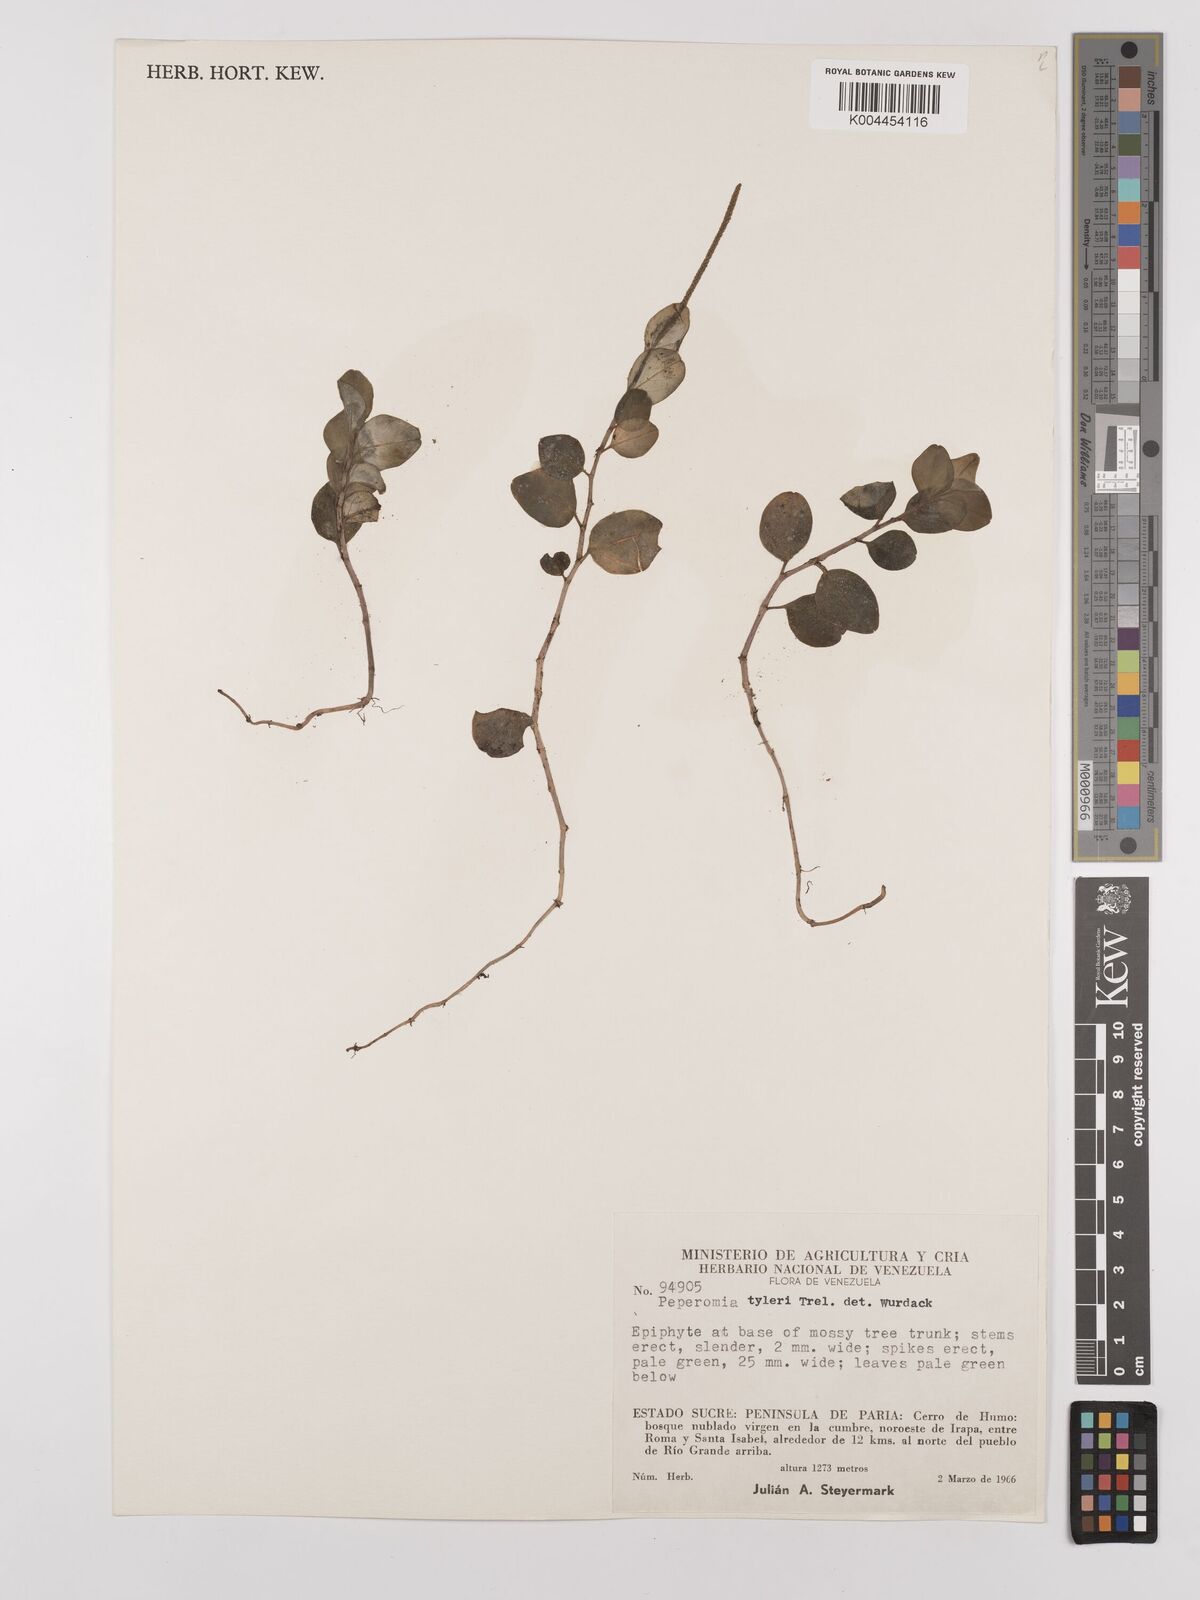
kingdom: Plantae
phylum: Tracheophyta
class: Magnoliopsida
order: Piperales
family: Piperaceae
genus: Peperomia
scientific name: Peperomia
